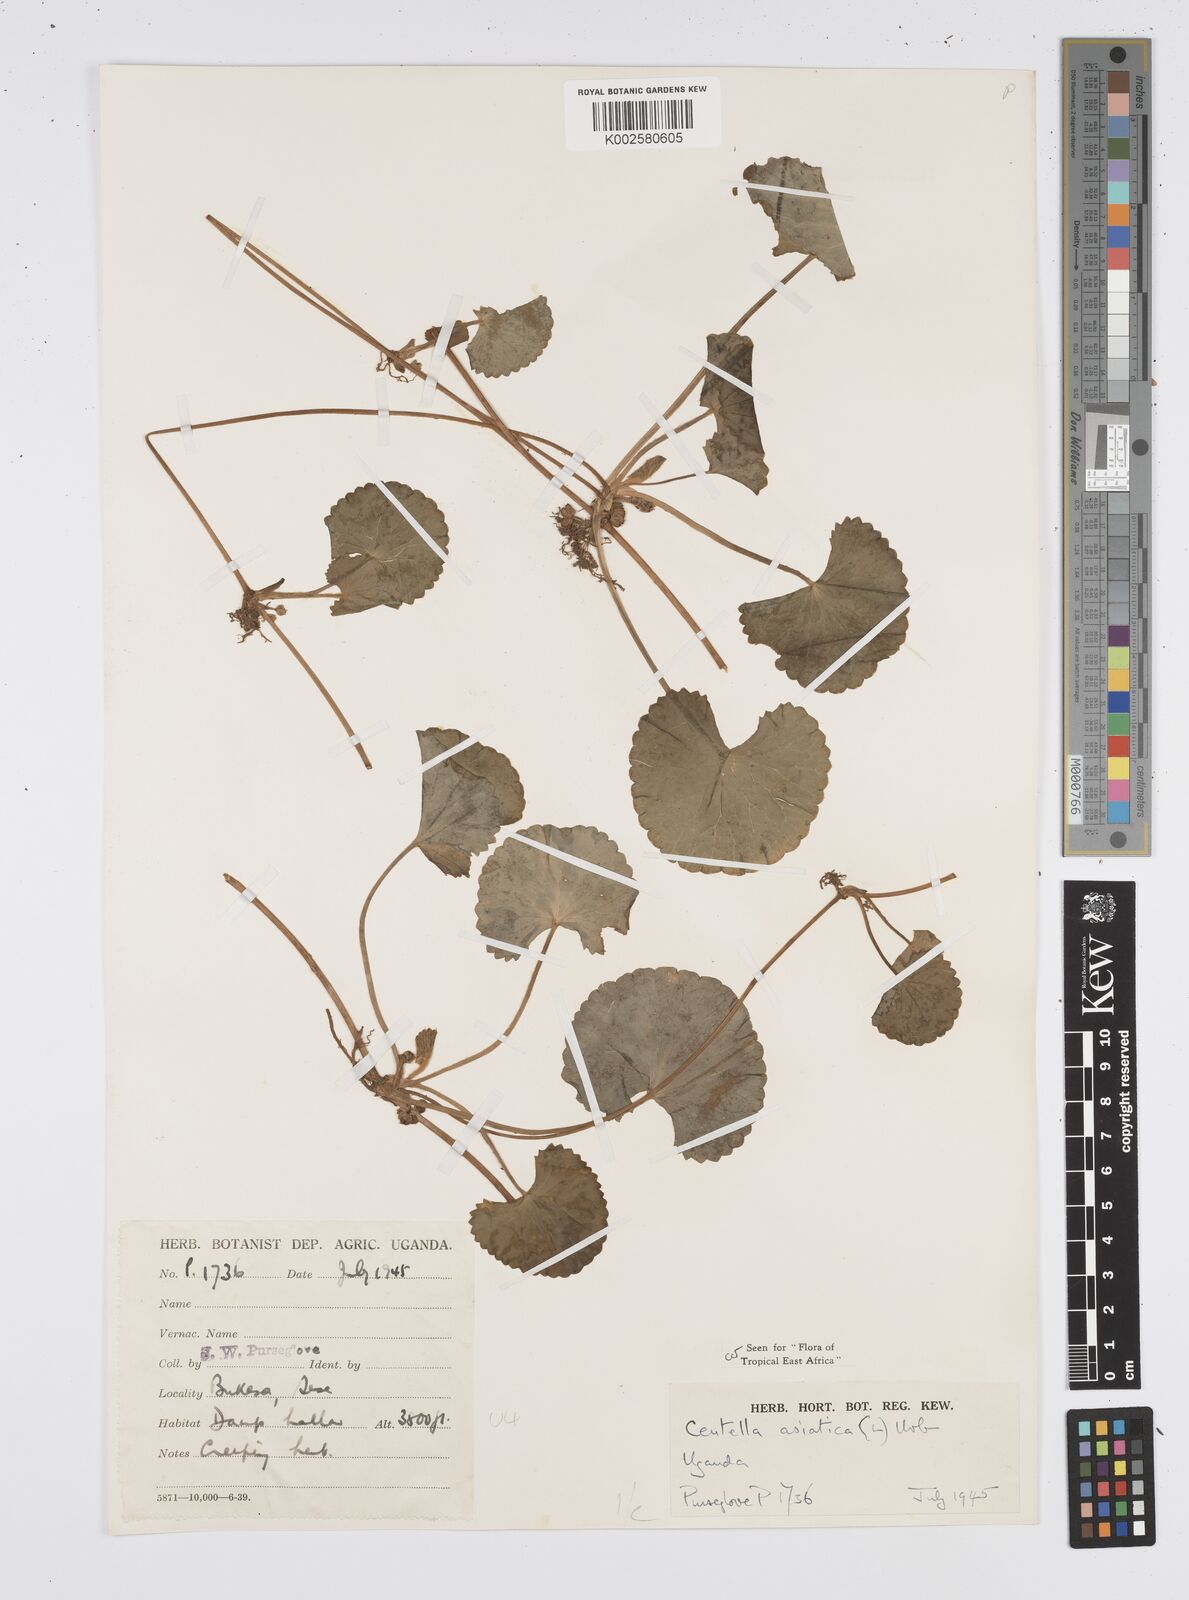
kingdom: Plantae
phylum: Tracheophyta
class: Magnoliopsida
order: Apiales
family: Apiaceae
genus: Centella
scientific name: Centella asiatica
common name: Spadeleaf
